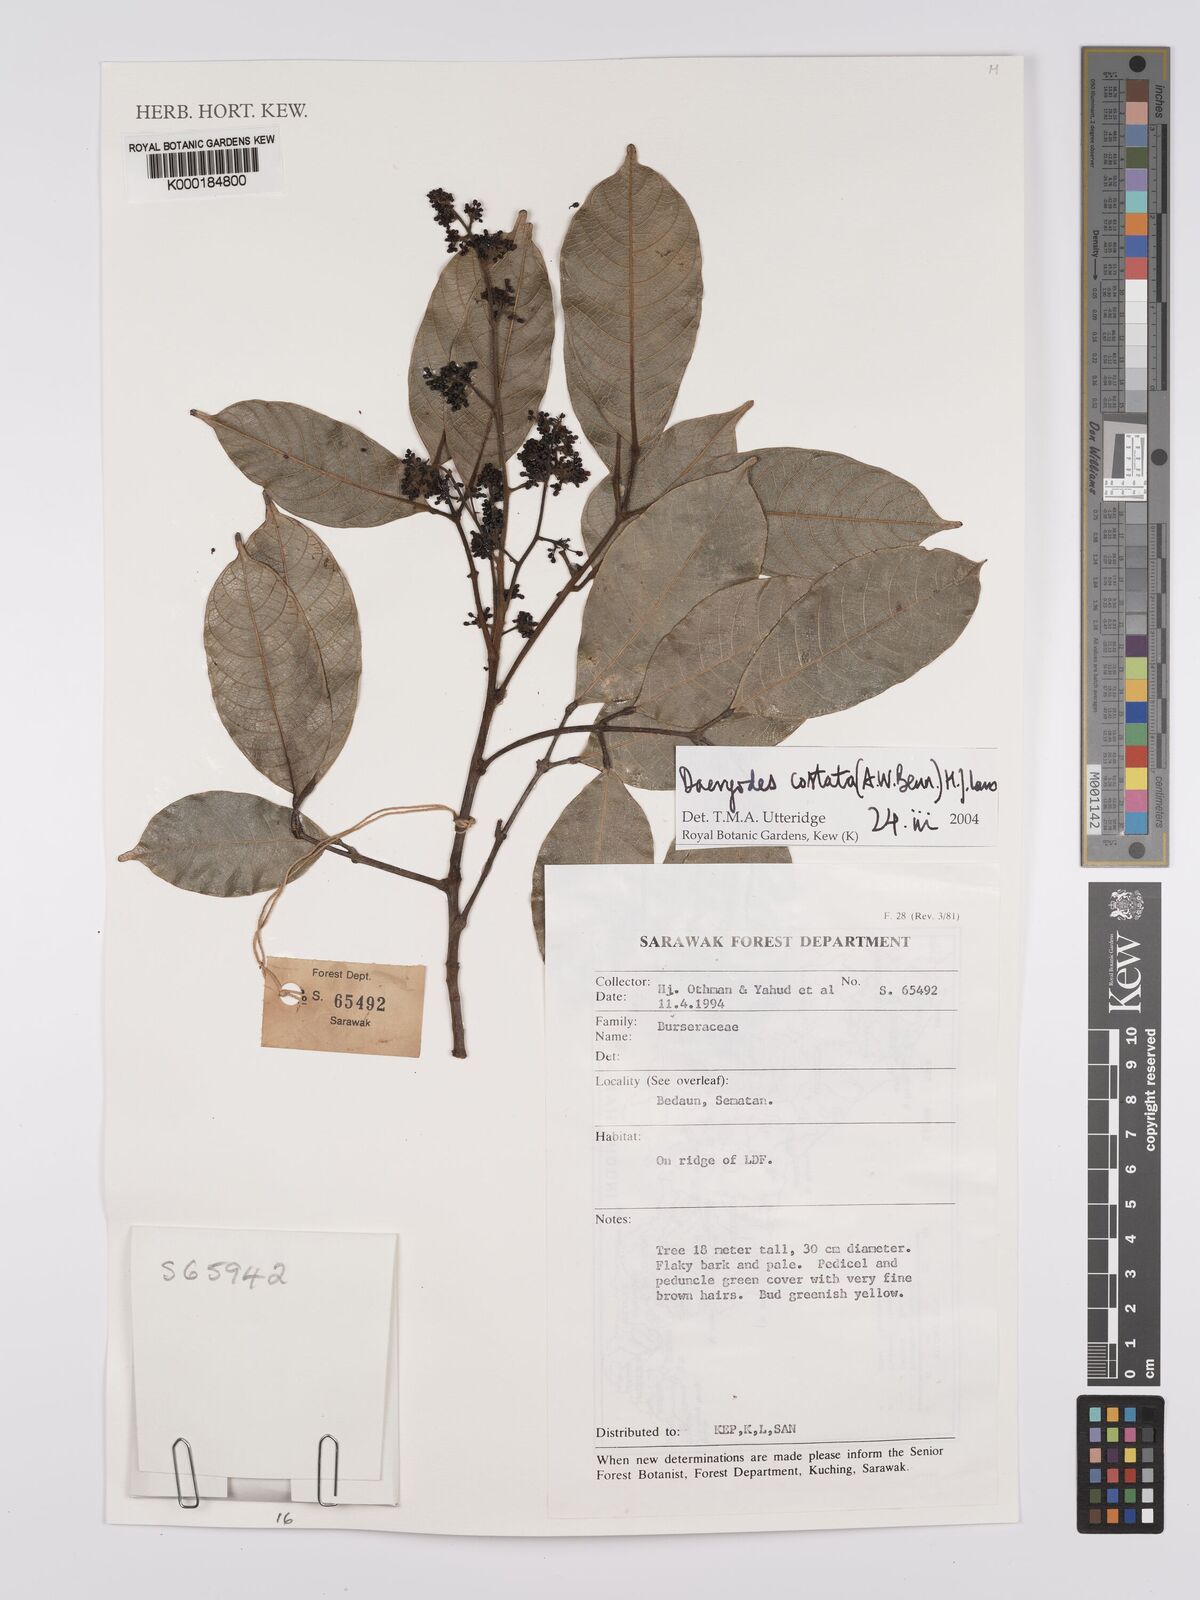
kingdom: Plantae
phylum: Tracheophyta
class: Magnoliopsida
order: Sapindales
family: Burseraceae
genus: Dacryodes
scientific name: Dacryodes costata
